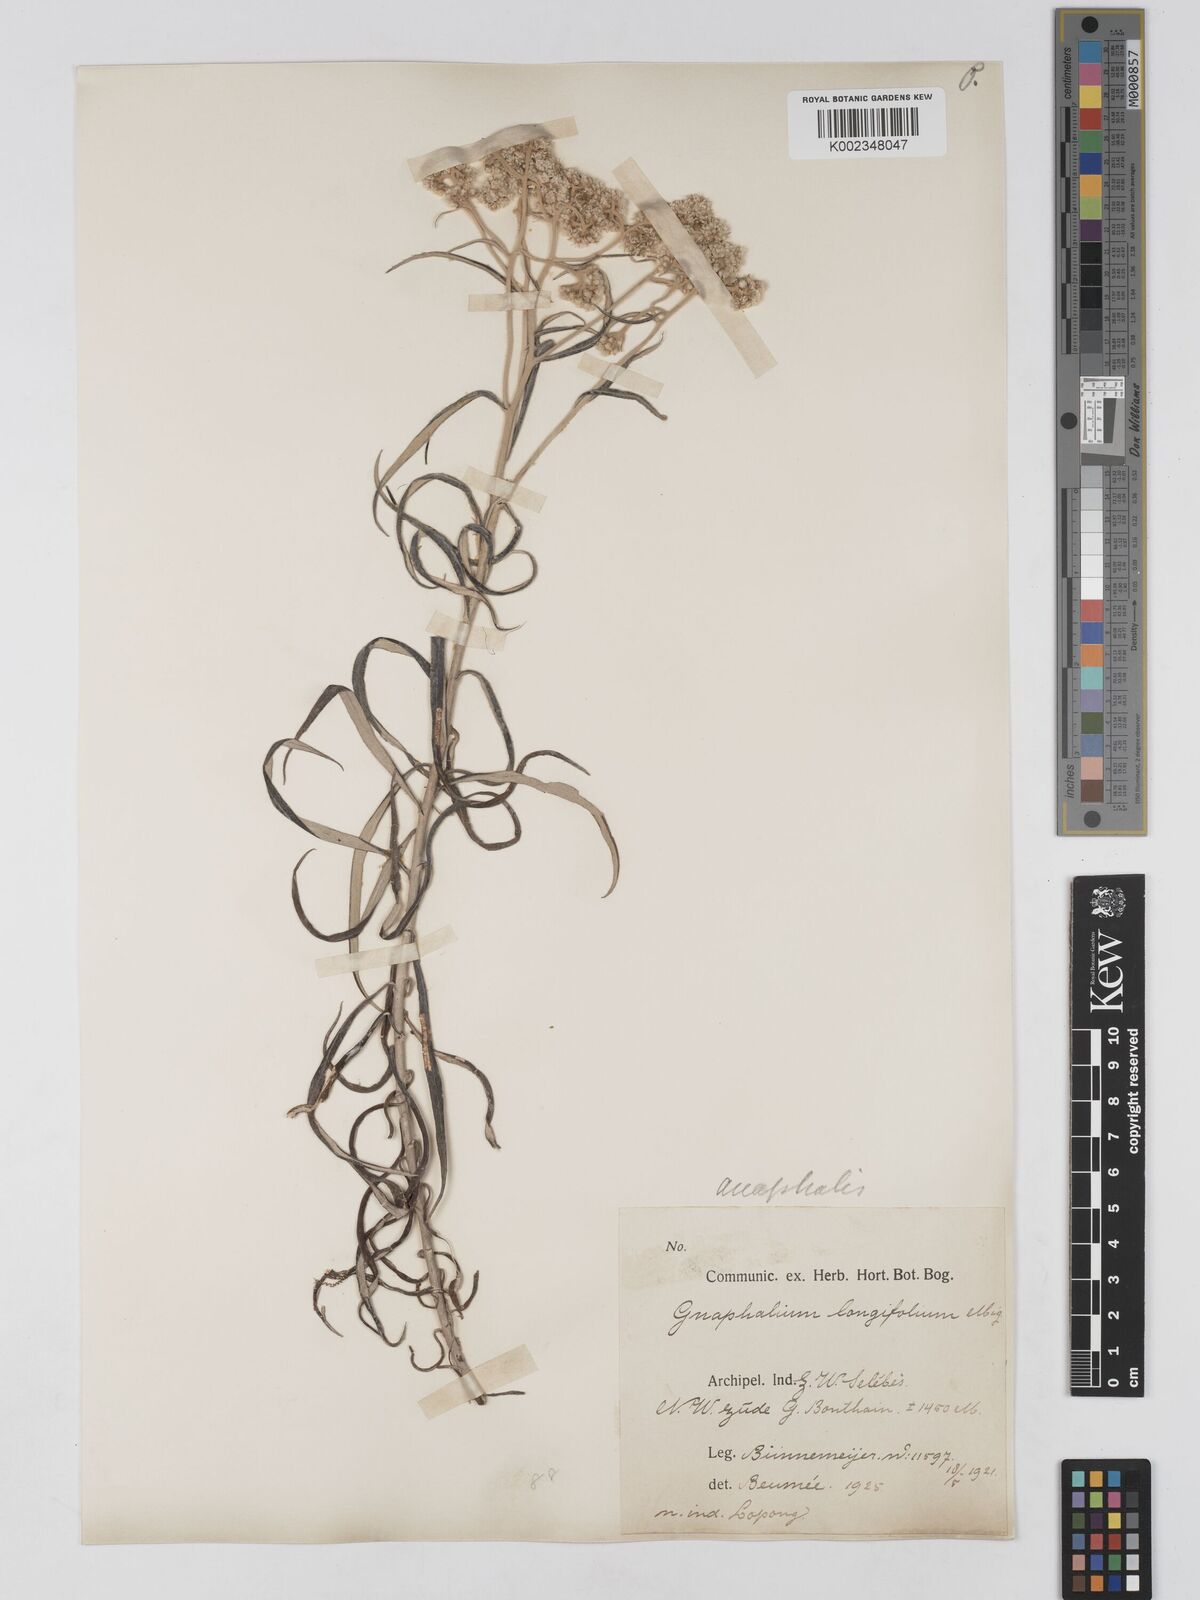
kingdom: Plantae
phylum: Tracheophyta
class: Magnoliopsida
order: Asterales
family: Asteraceae
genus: Anaphalis
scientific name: Anaphalis longifolia
